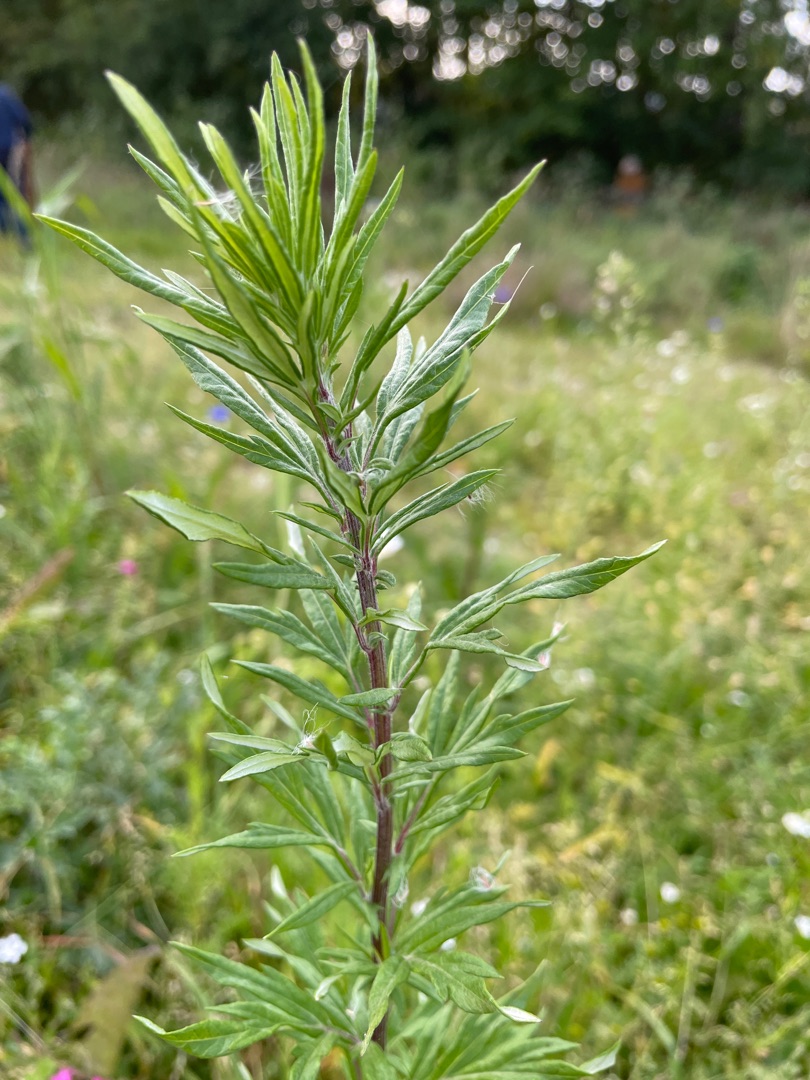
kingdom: Plantae
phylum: Tracheophyta
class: Magnoliopsida
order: Asterales
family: Asteraceae
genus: Artemisia
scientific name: Artemisia vulgaris
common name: Grå-bynke
